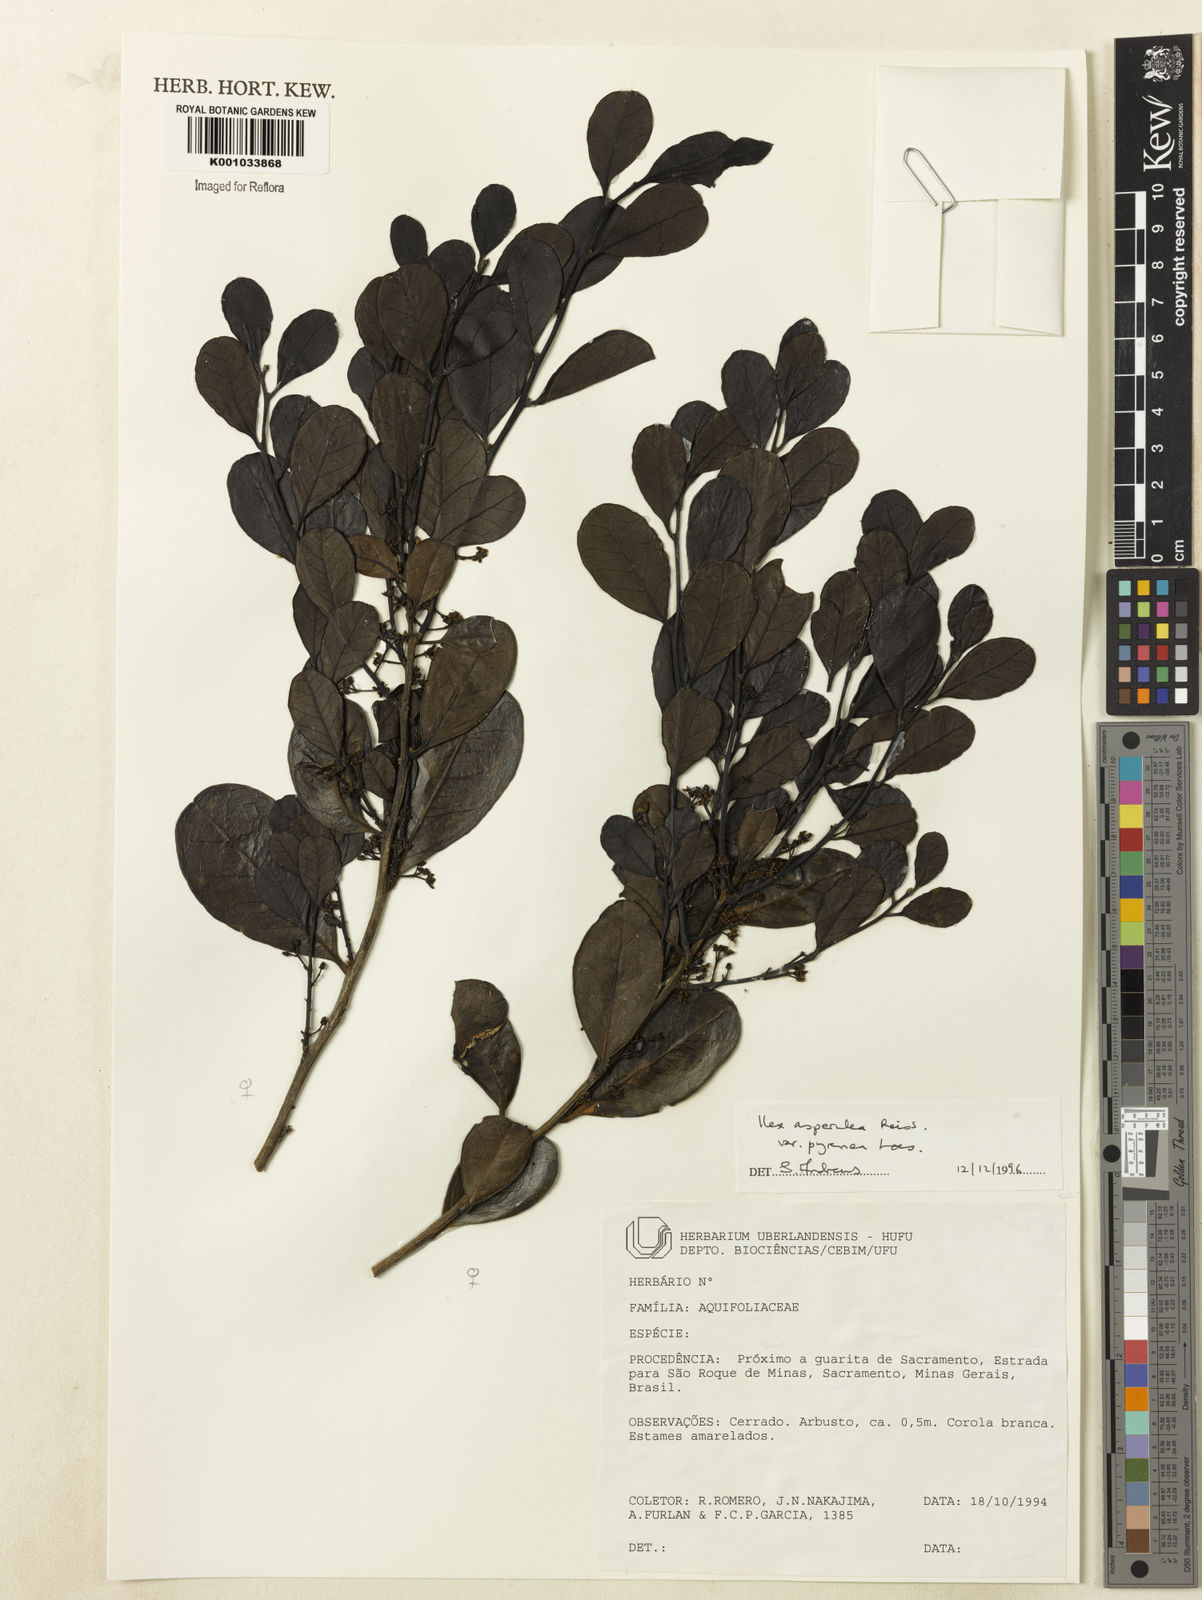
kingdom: Plantae
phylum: Tracheophyta
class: Magnoliopsida
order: Aquifoliales
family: Aquifoliaceae
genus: Ilex
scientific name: Ilex asperula
